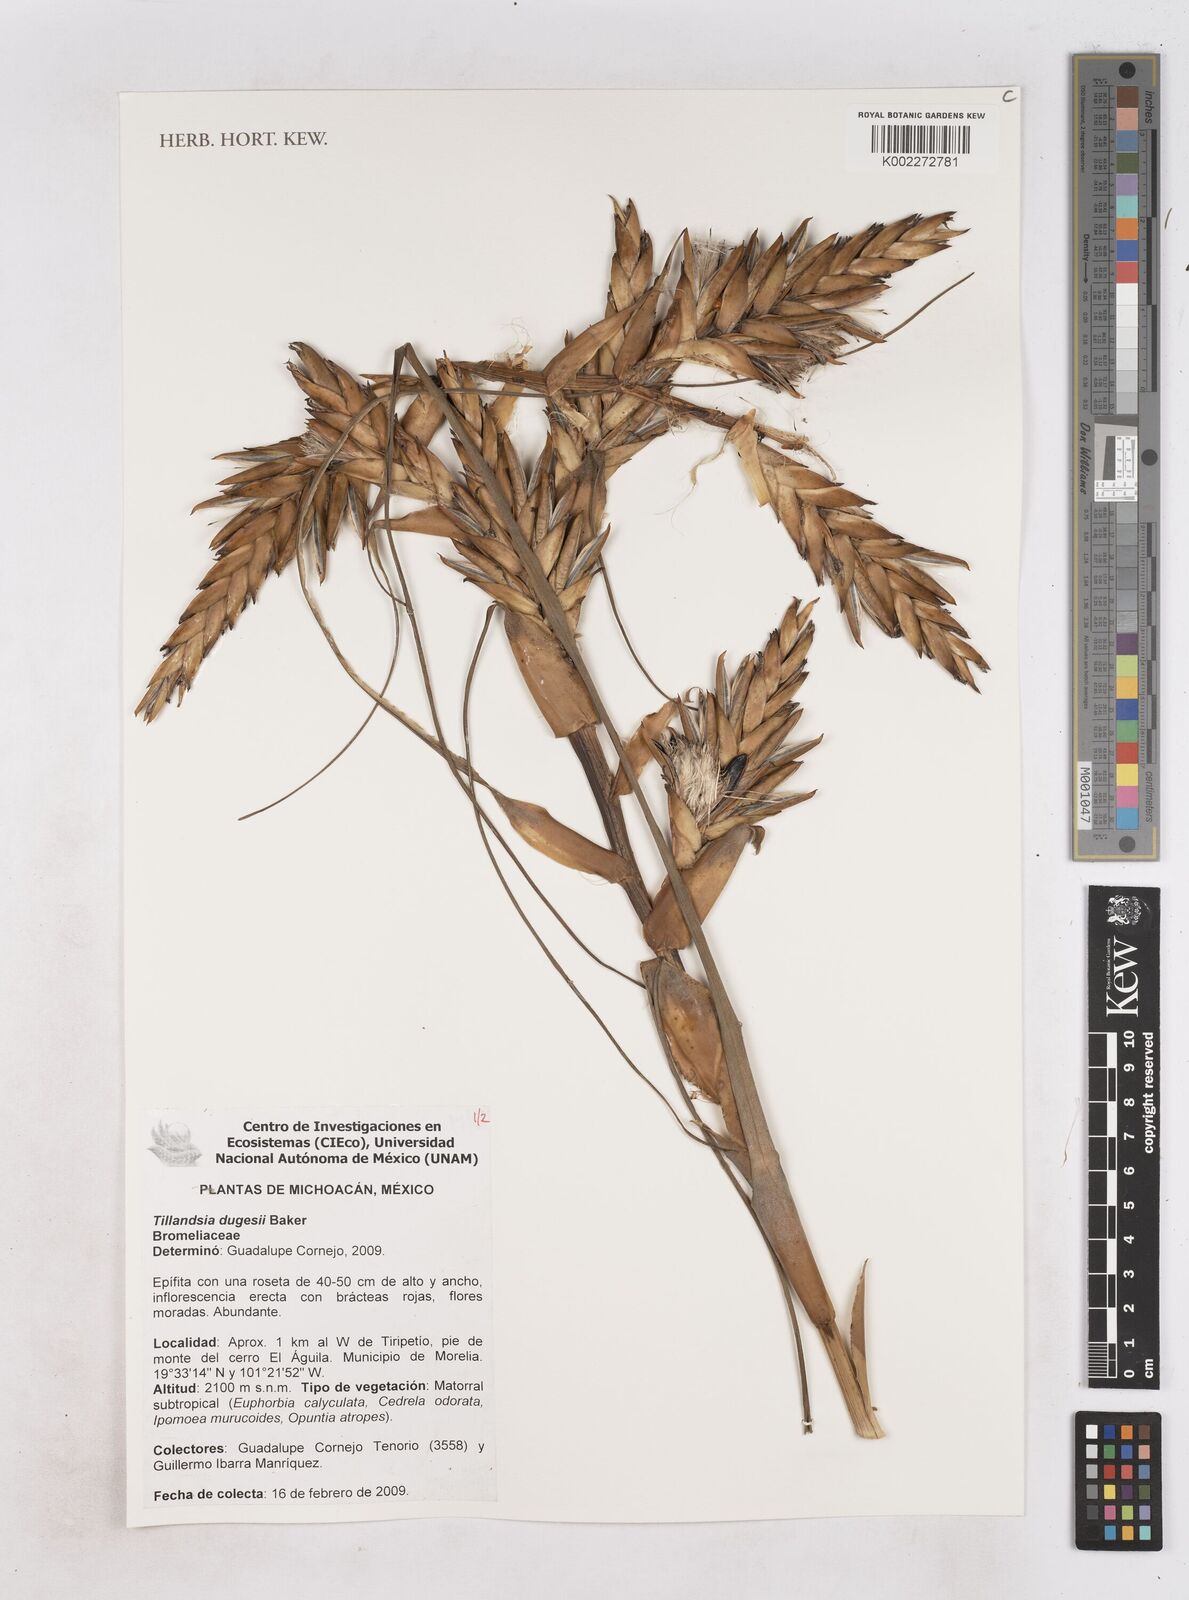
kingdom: Plantae
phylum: Tracheophyta
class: Liliopsida
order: Poales
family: Bromeliaceae
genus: Tillandsia
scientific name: Tillandsia dugesii
